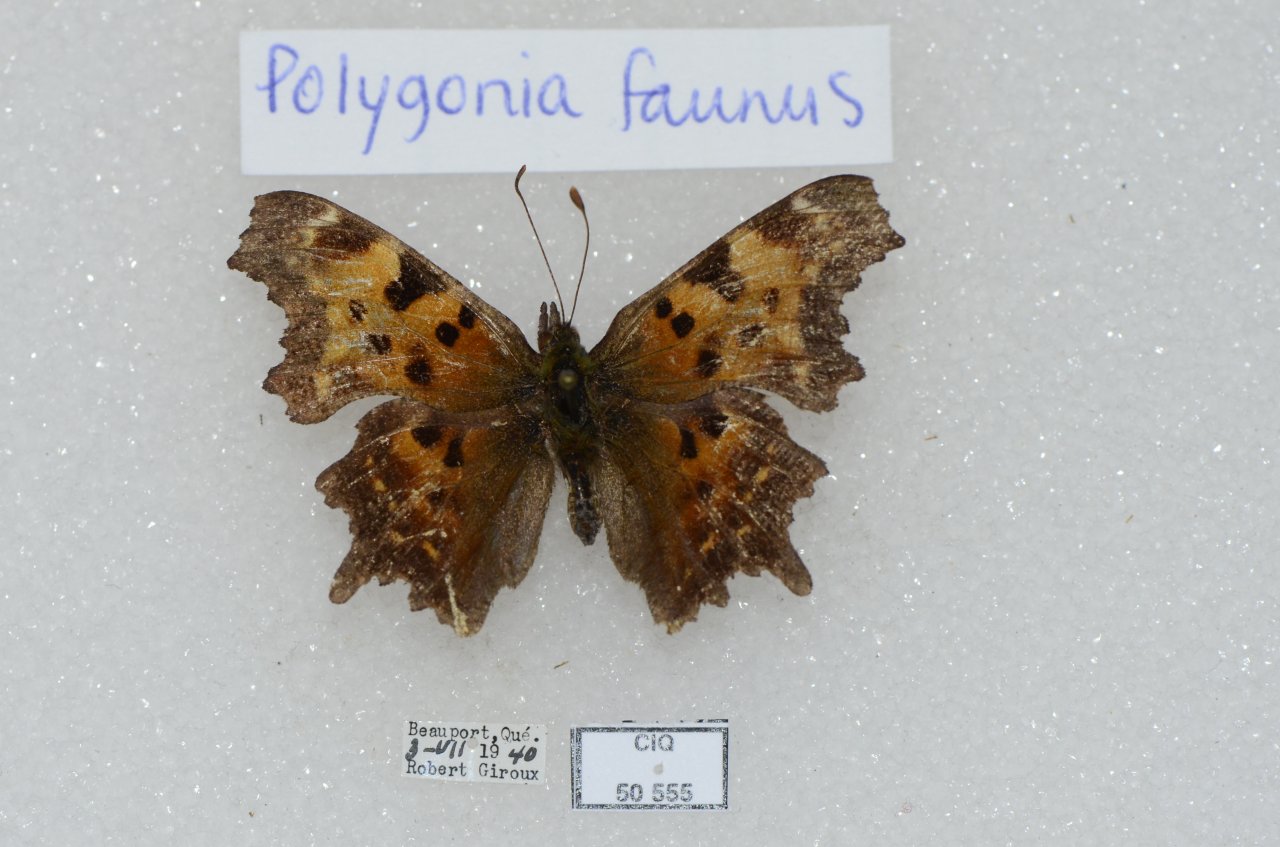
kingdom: Animalia
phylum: Arthropoda
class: Insecta
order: Lepidoptera
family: Nymphalidae
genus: Polygonia
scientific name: Polygonia faunus
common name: Green Comma
